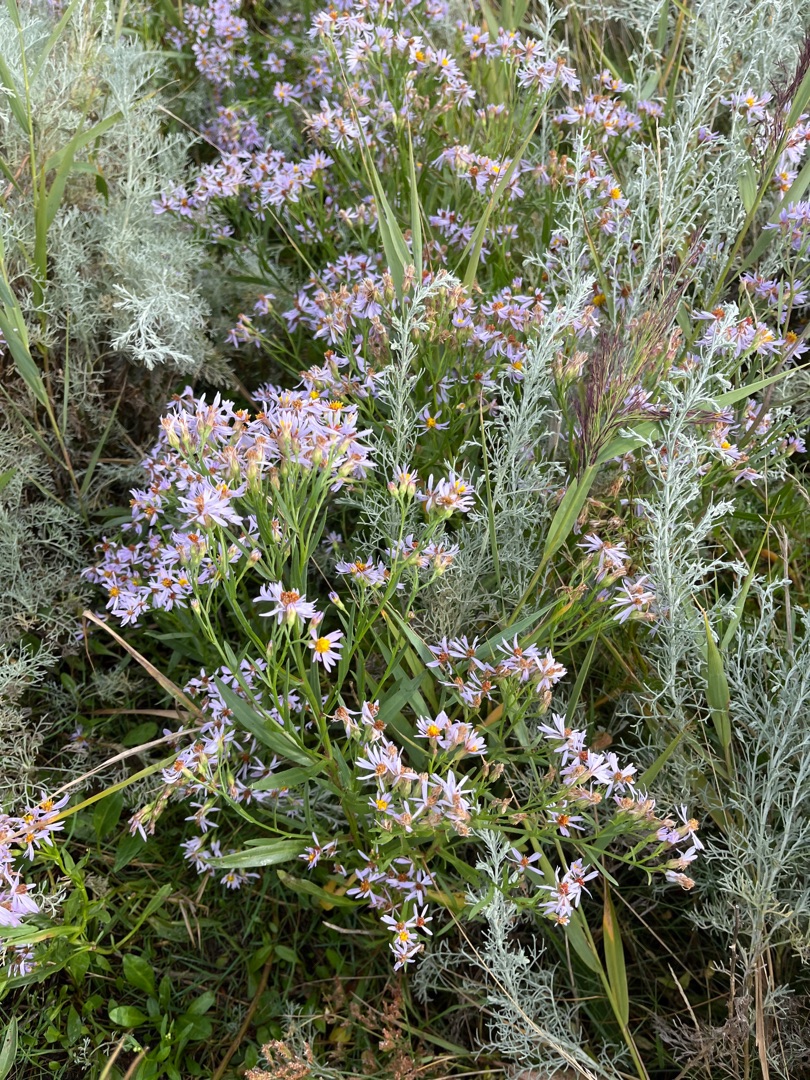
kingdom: Plantae
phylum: Tracheophyta
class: Magnoliopsida
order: Asterales
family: Asteraceae
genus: Tripolium
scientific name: Tripolium pannonicum
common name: Strandasters
